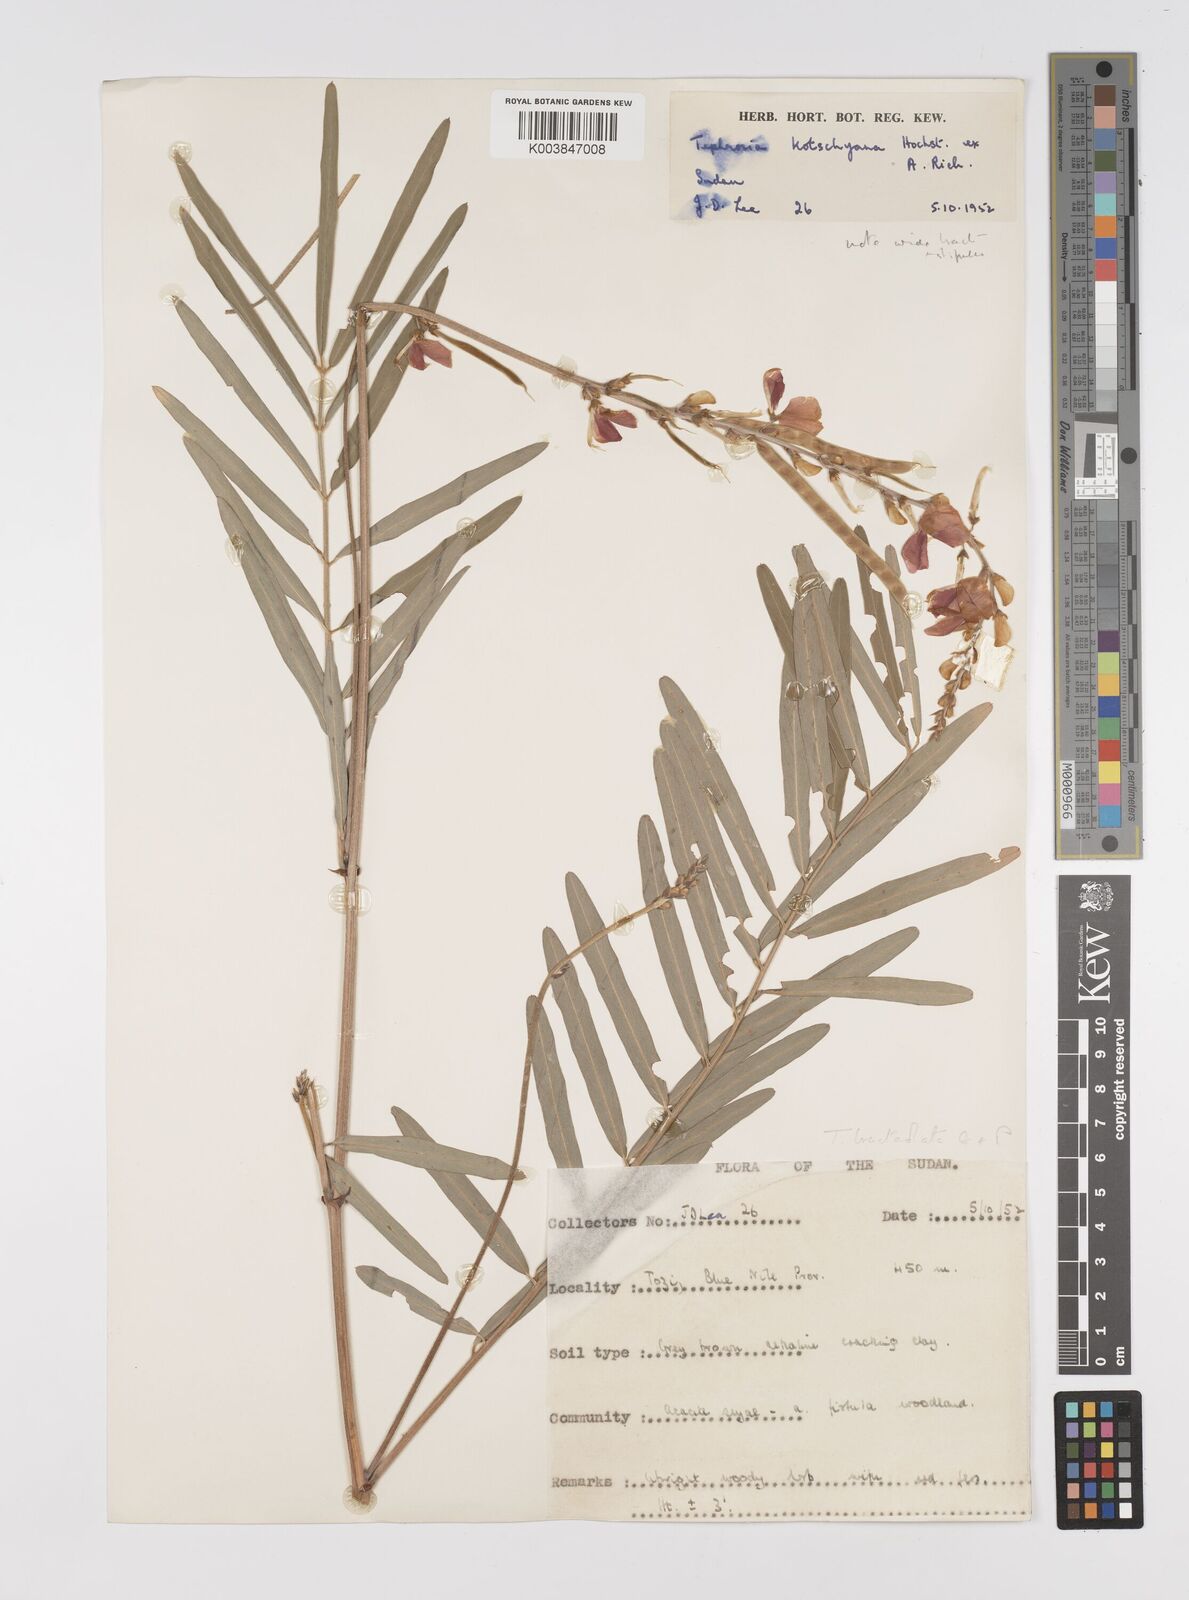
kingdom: Plantae
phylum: Tracheophyta
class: Magnoliopsida
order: Fabales
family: Fabaceae
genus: Tephrosia
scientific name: Tephrosia bracteolata
